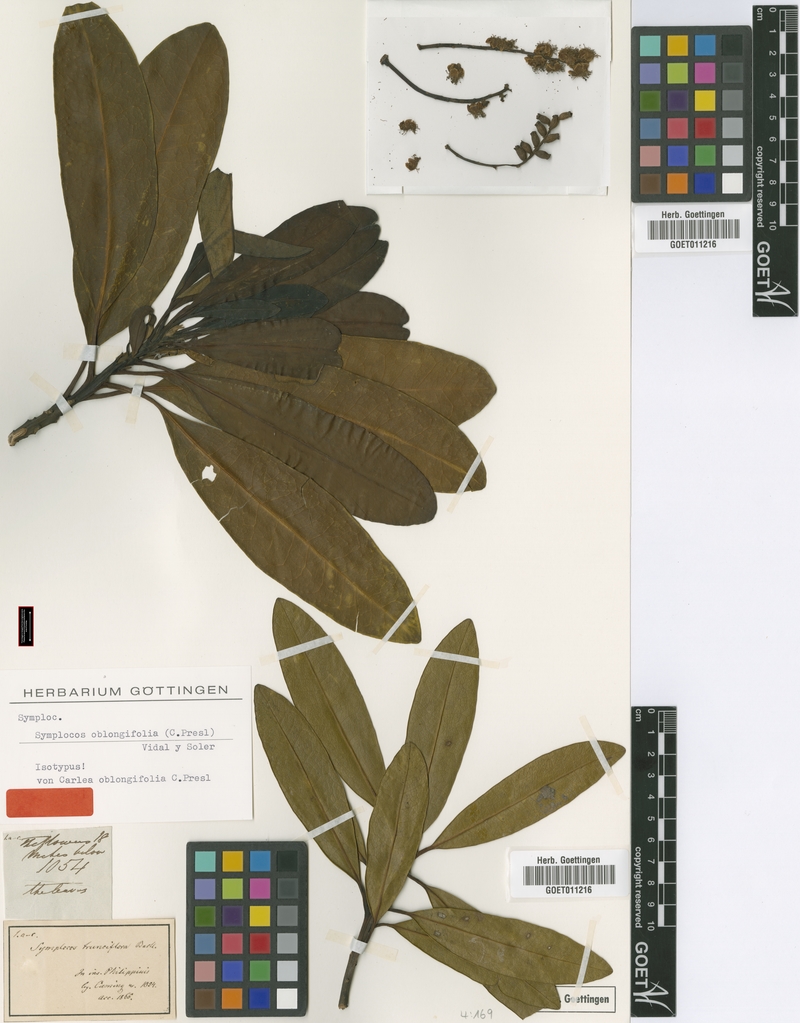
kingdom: Plantae
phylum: Tracheophyta
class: Magnoliopsida
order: Ericales
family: Symplocaceae
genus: Symplocos
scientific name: Symplocos polyandra
